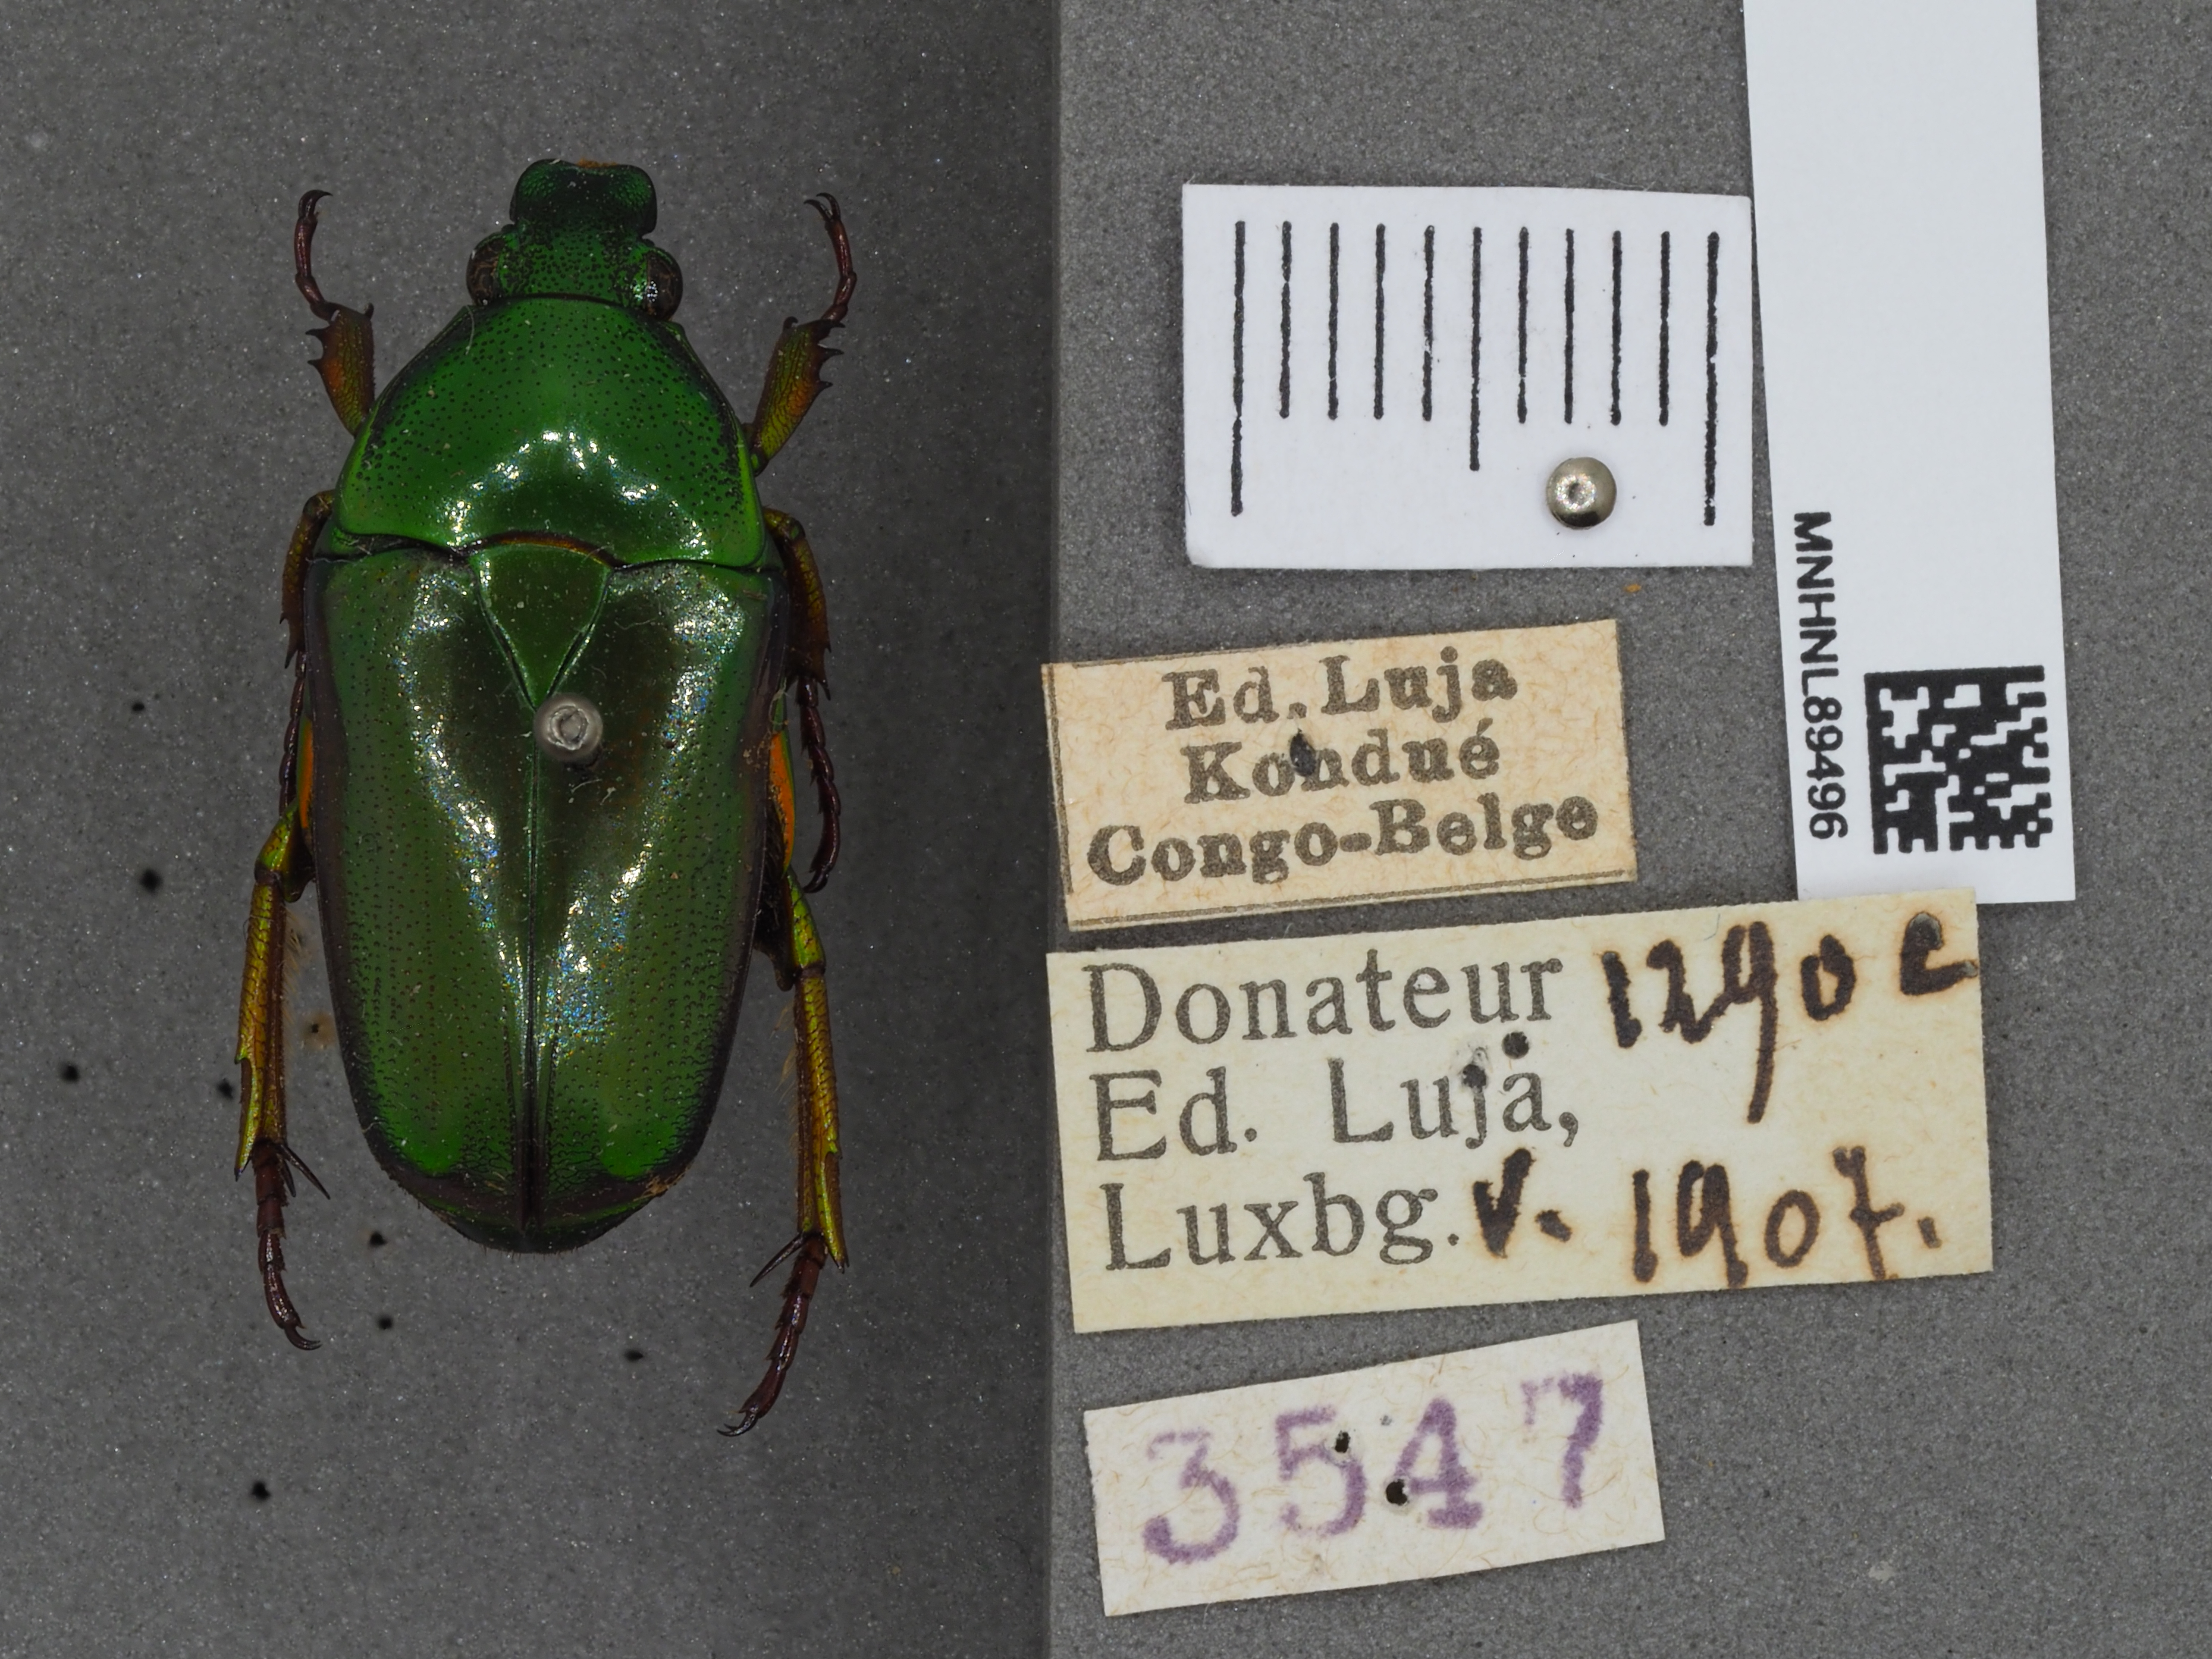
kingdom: Animalia
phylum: Arthropoda
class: Insecta
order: Coleoptera
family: Scarabaeidae
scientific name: Scarabaeidae
